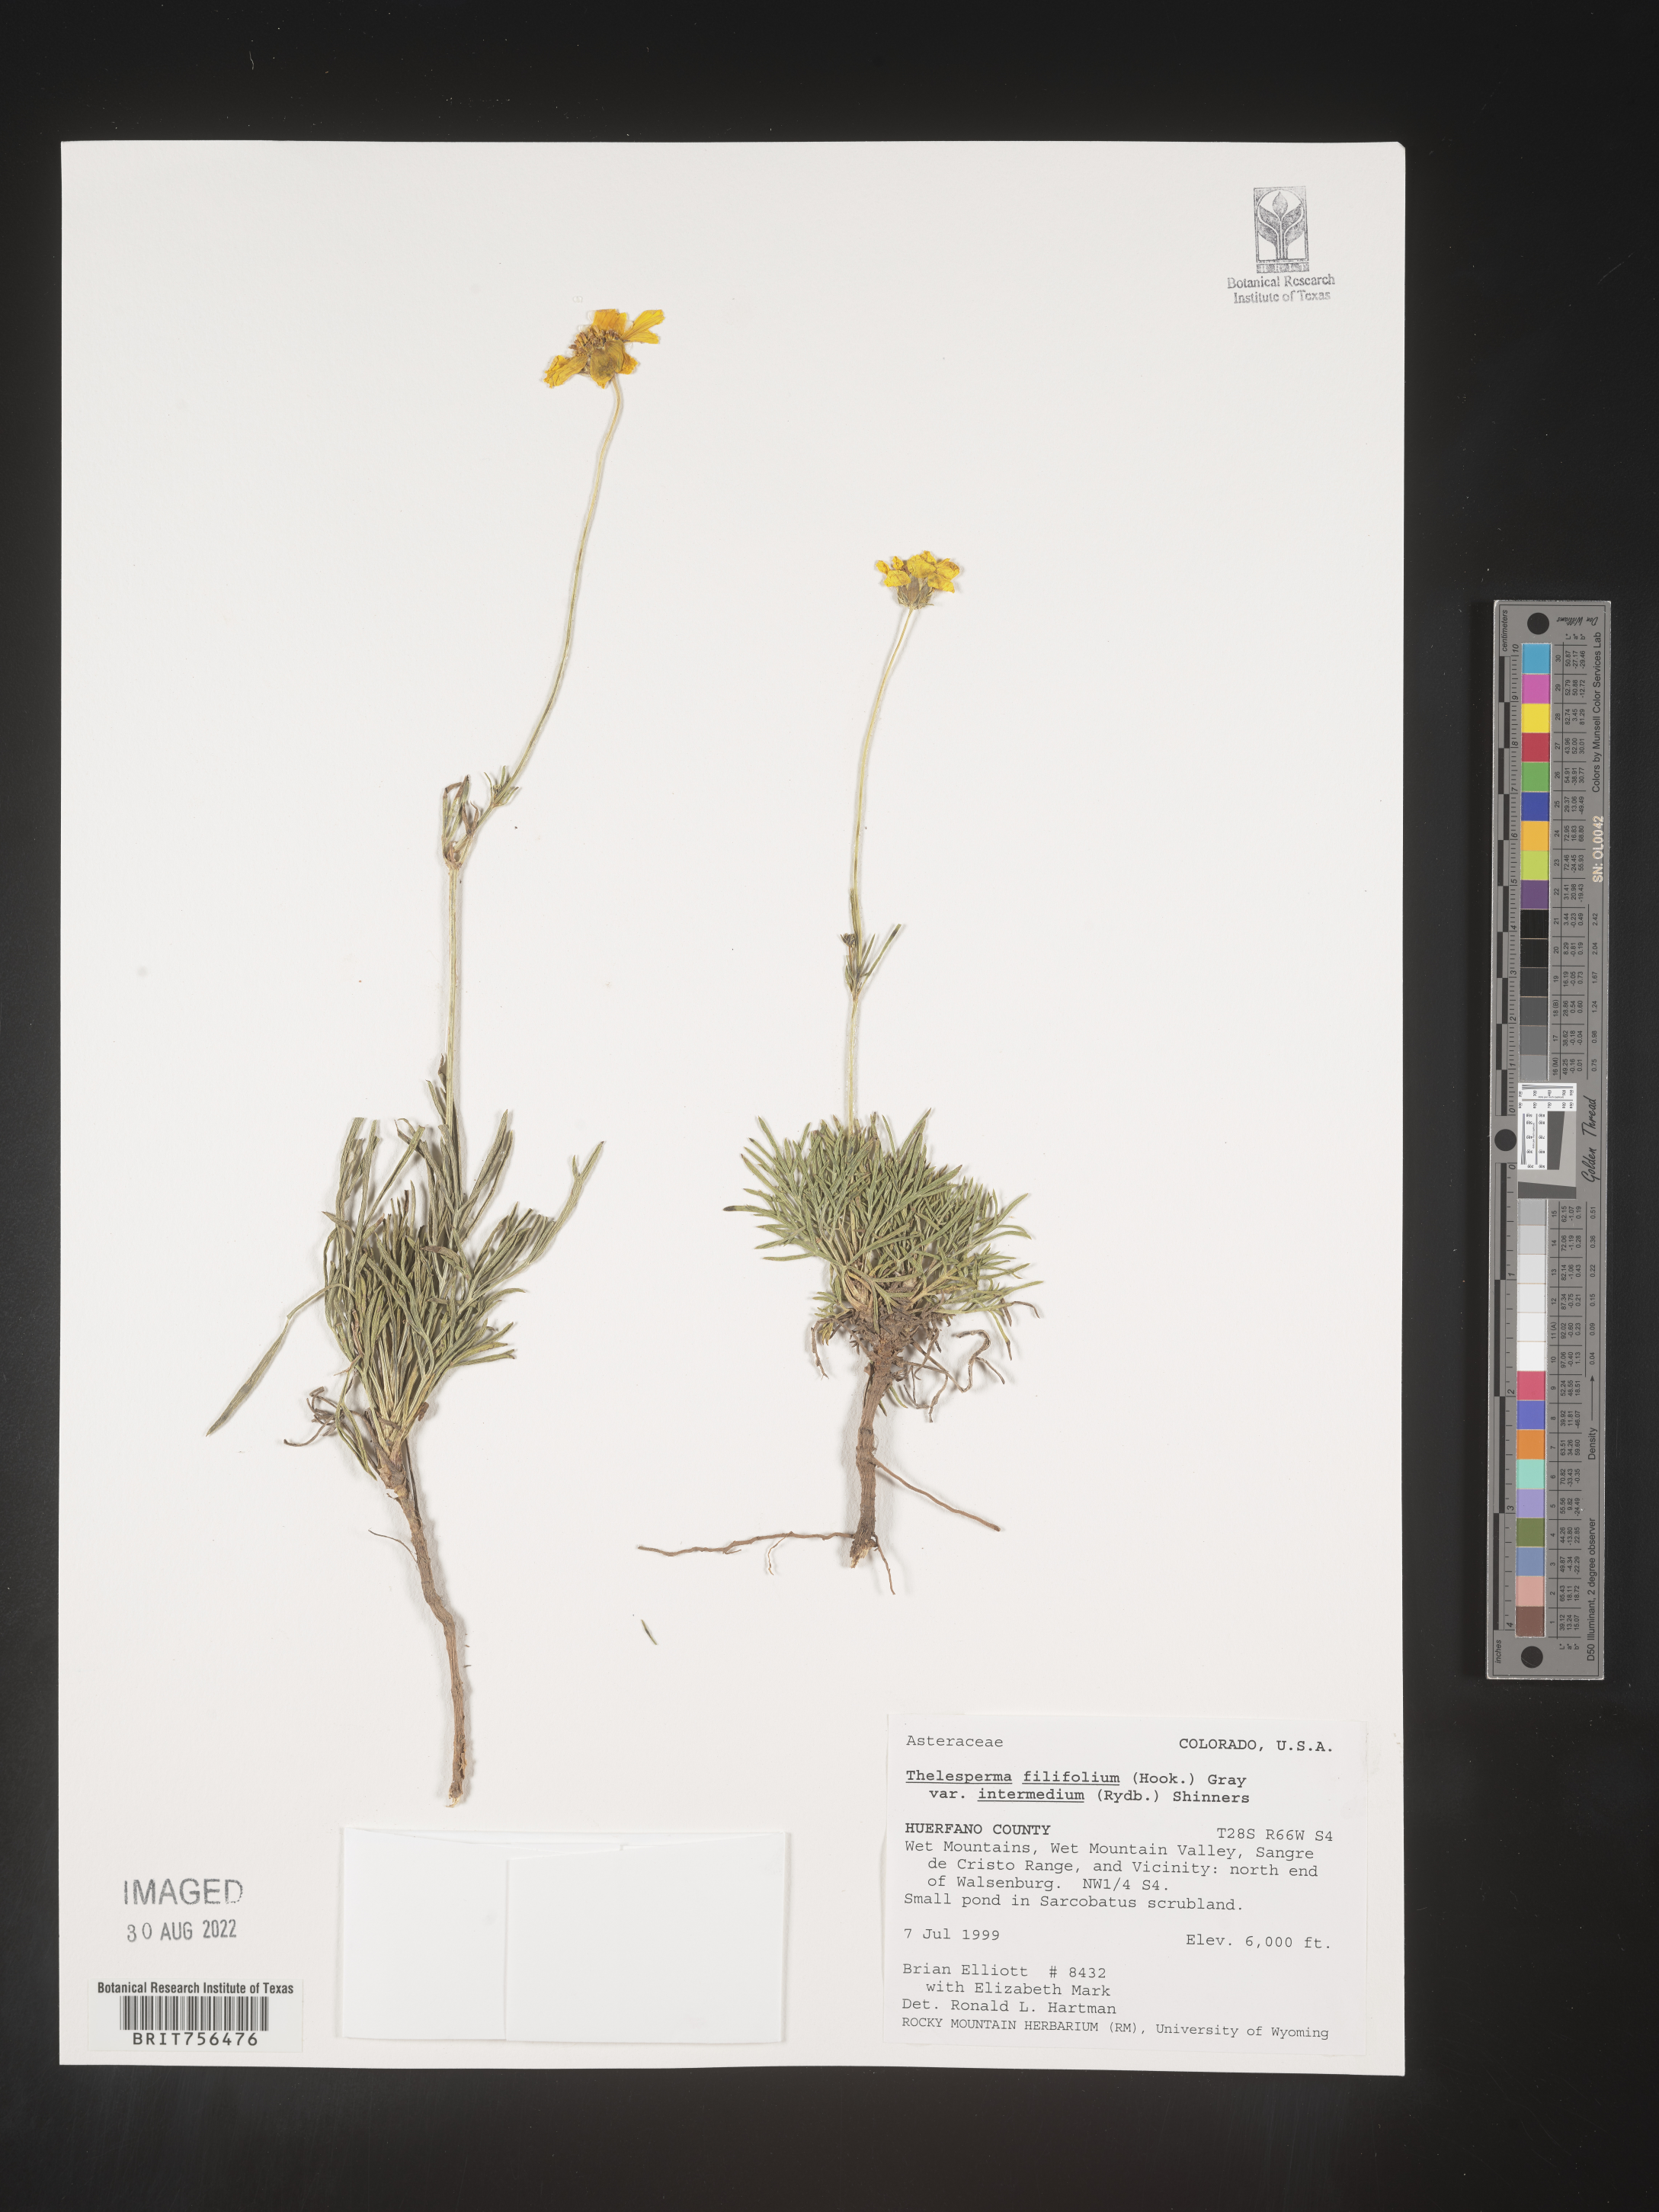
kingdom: Plantae
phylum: Tracheophyta
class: Magnoliopsida
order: Asterales
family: Asteraceae
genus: Thelesperma
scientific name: Thelesperma filifolium
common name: Stiff greenthread
